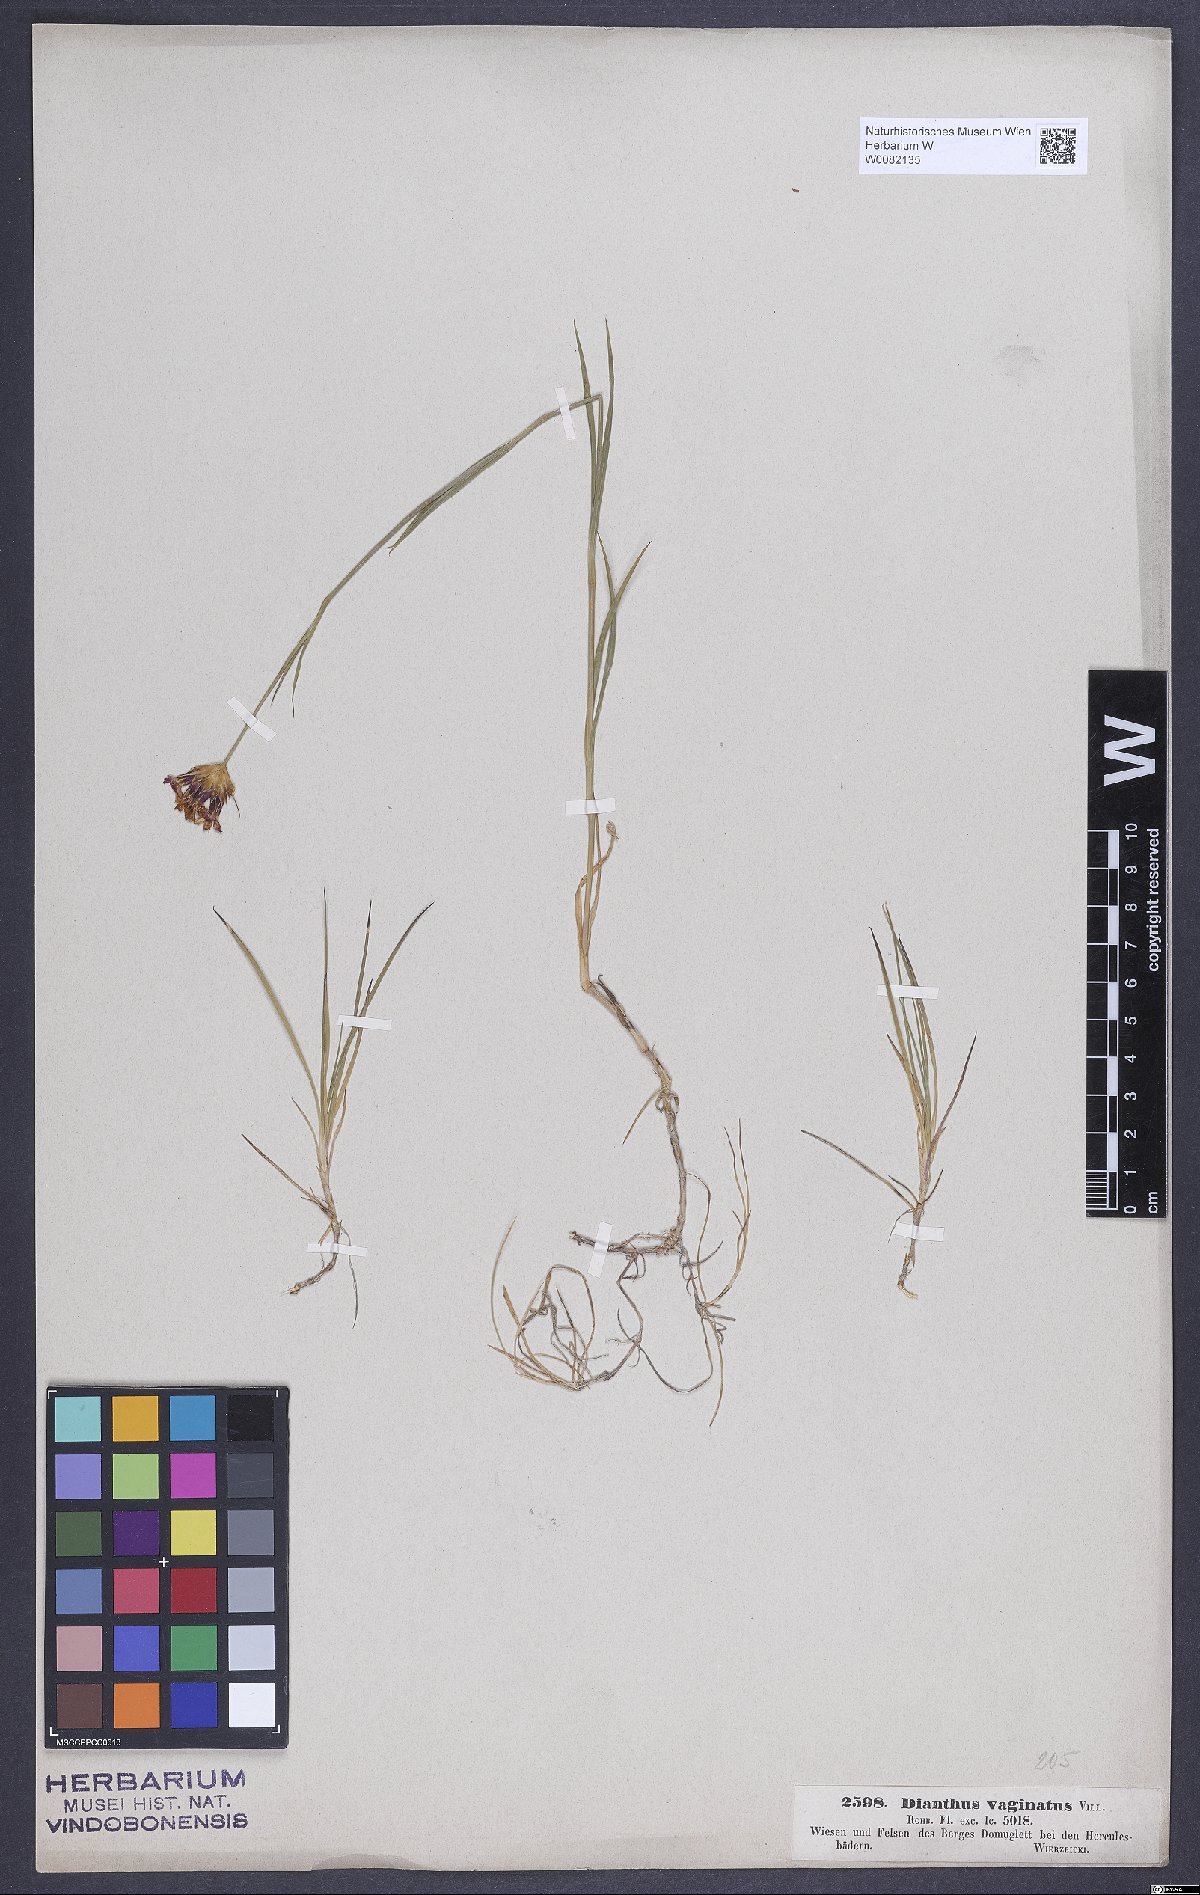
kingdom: Plantae
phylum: Tracheophyta
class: Magnoliopsida
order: Caryophyllales
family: Caryophyllaceae
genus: Dianthus
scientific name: Dianthus carthusianorum
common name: Carthusian pink
